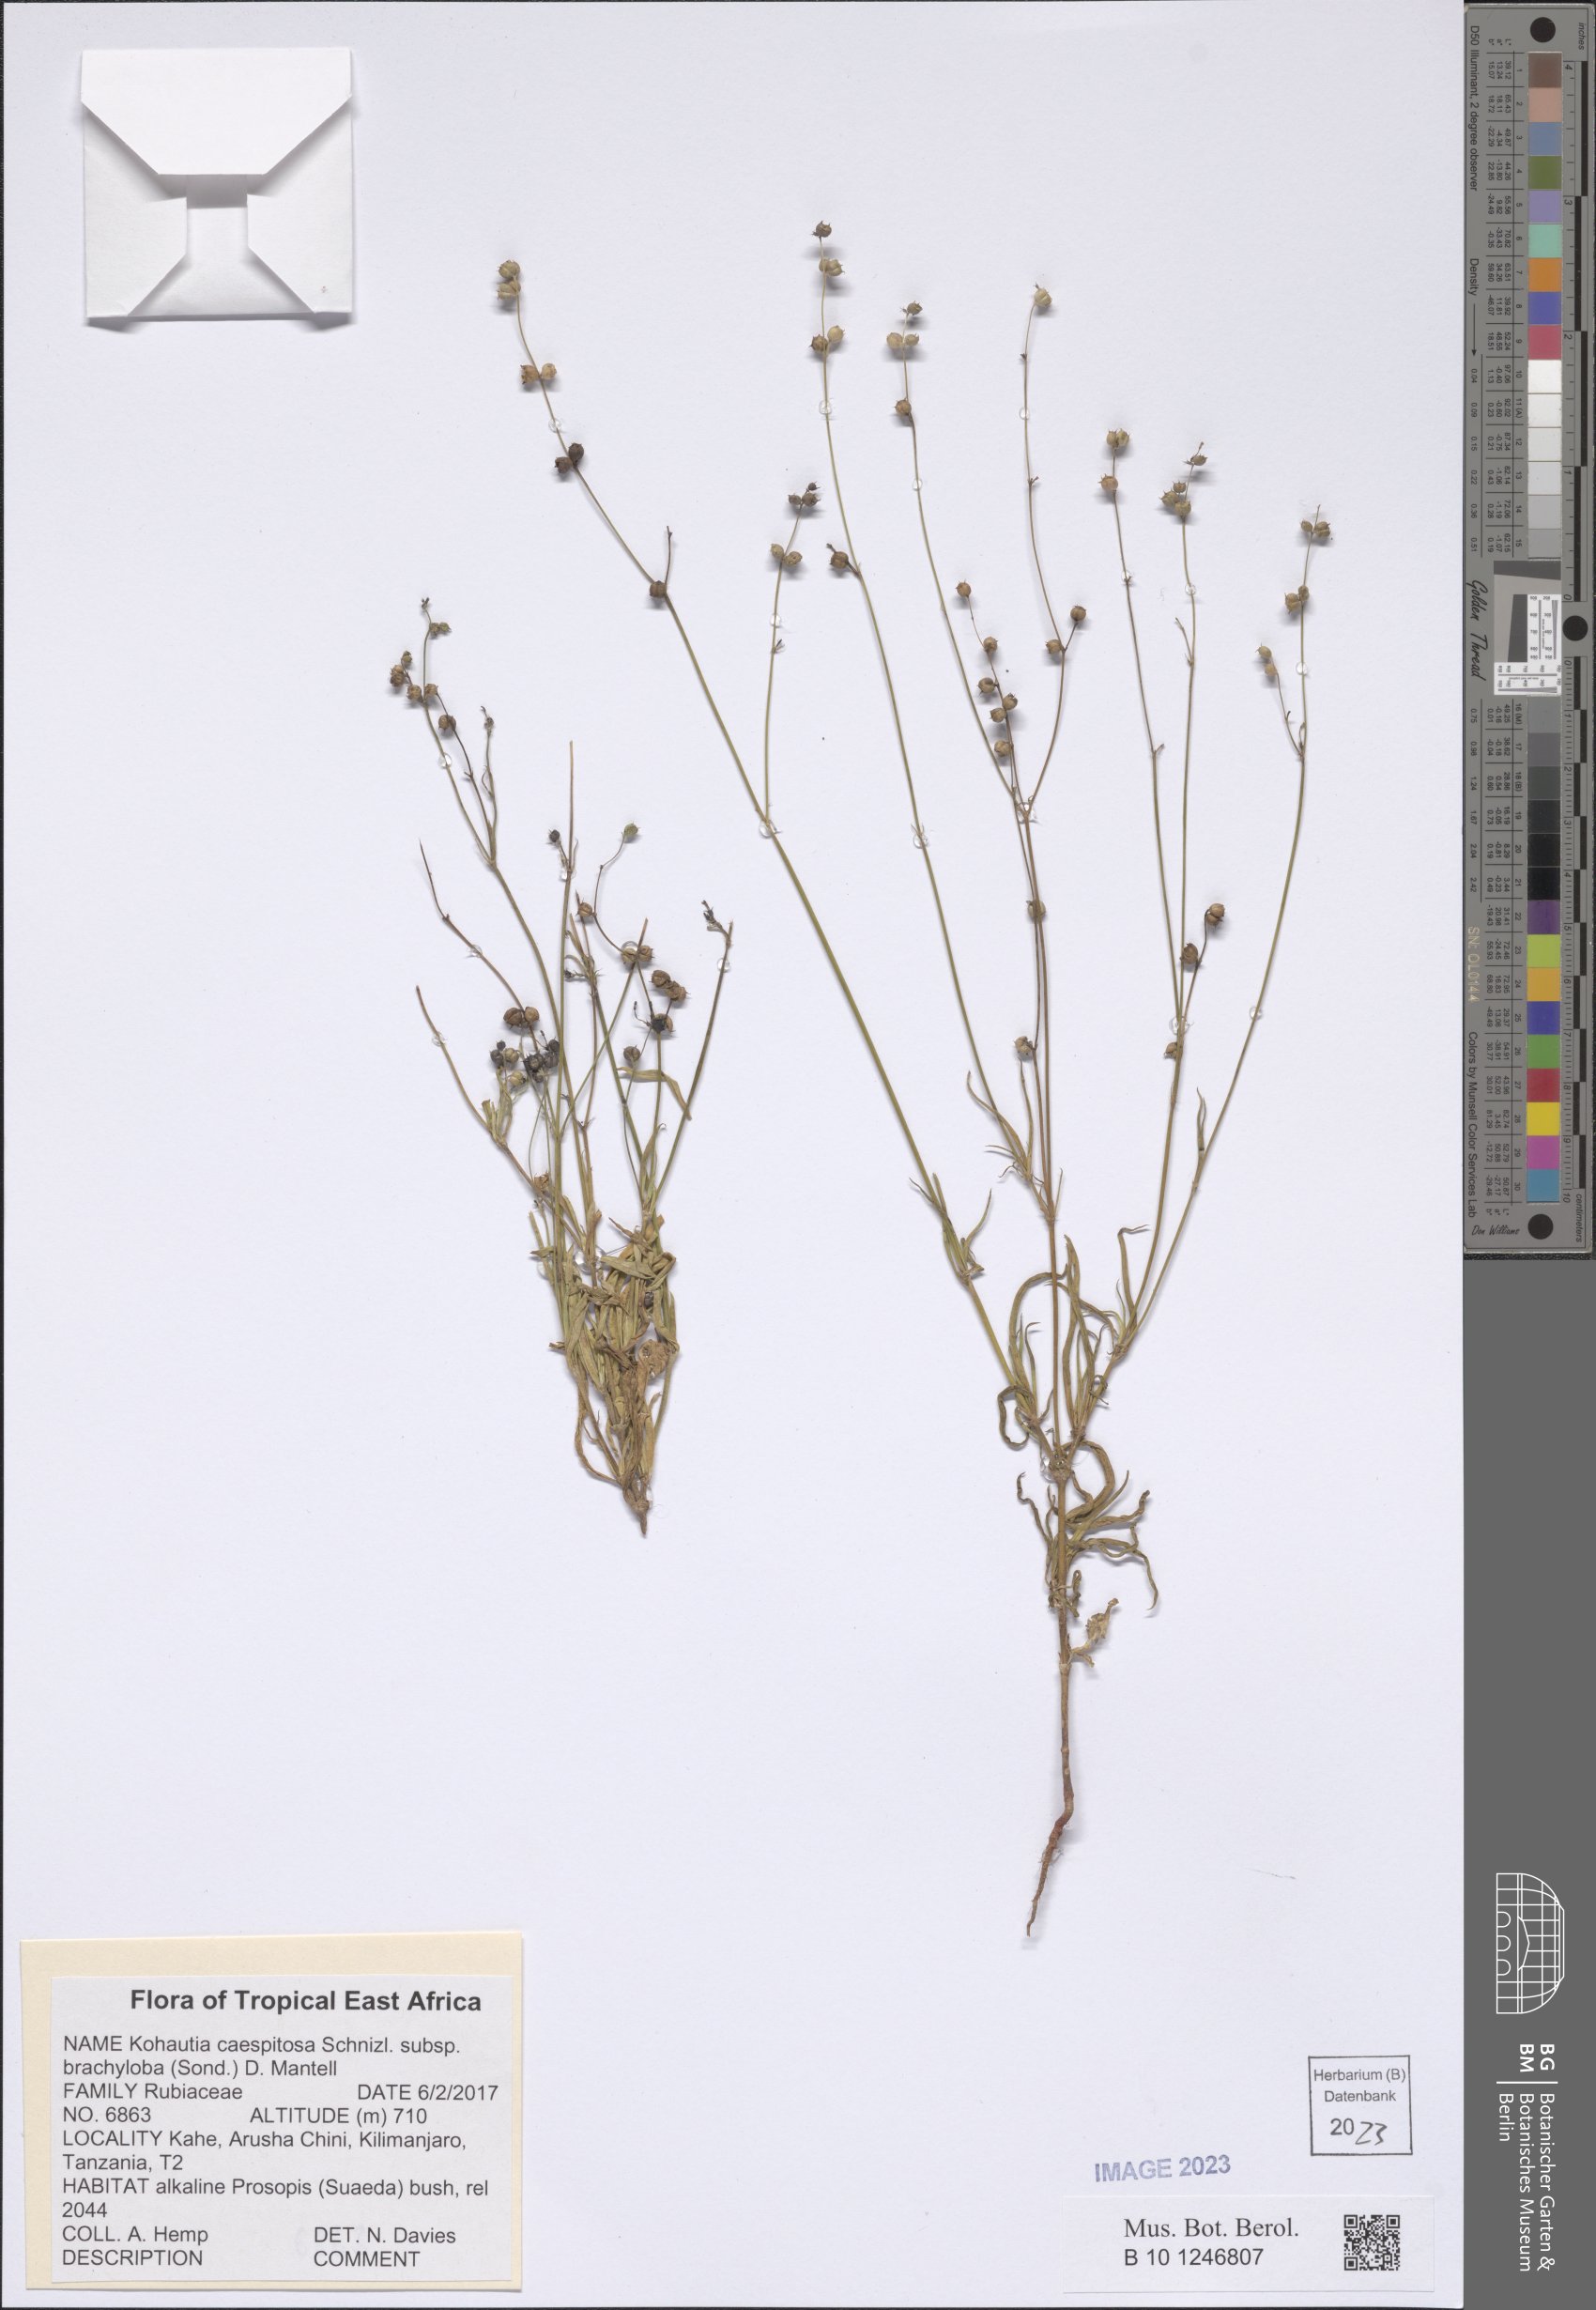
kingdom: Plantae
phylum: Tracheophyta
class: Magnoliopsida
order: Gentianales
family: Rubiaceae
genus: Kohautia
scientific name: Kohautia caespitosa
